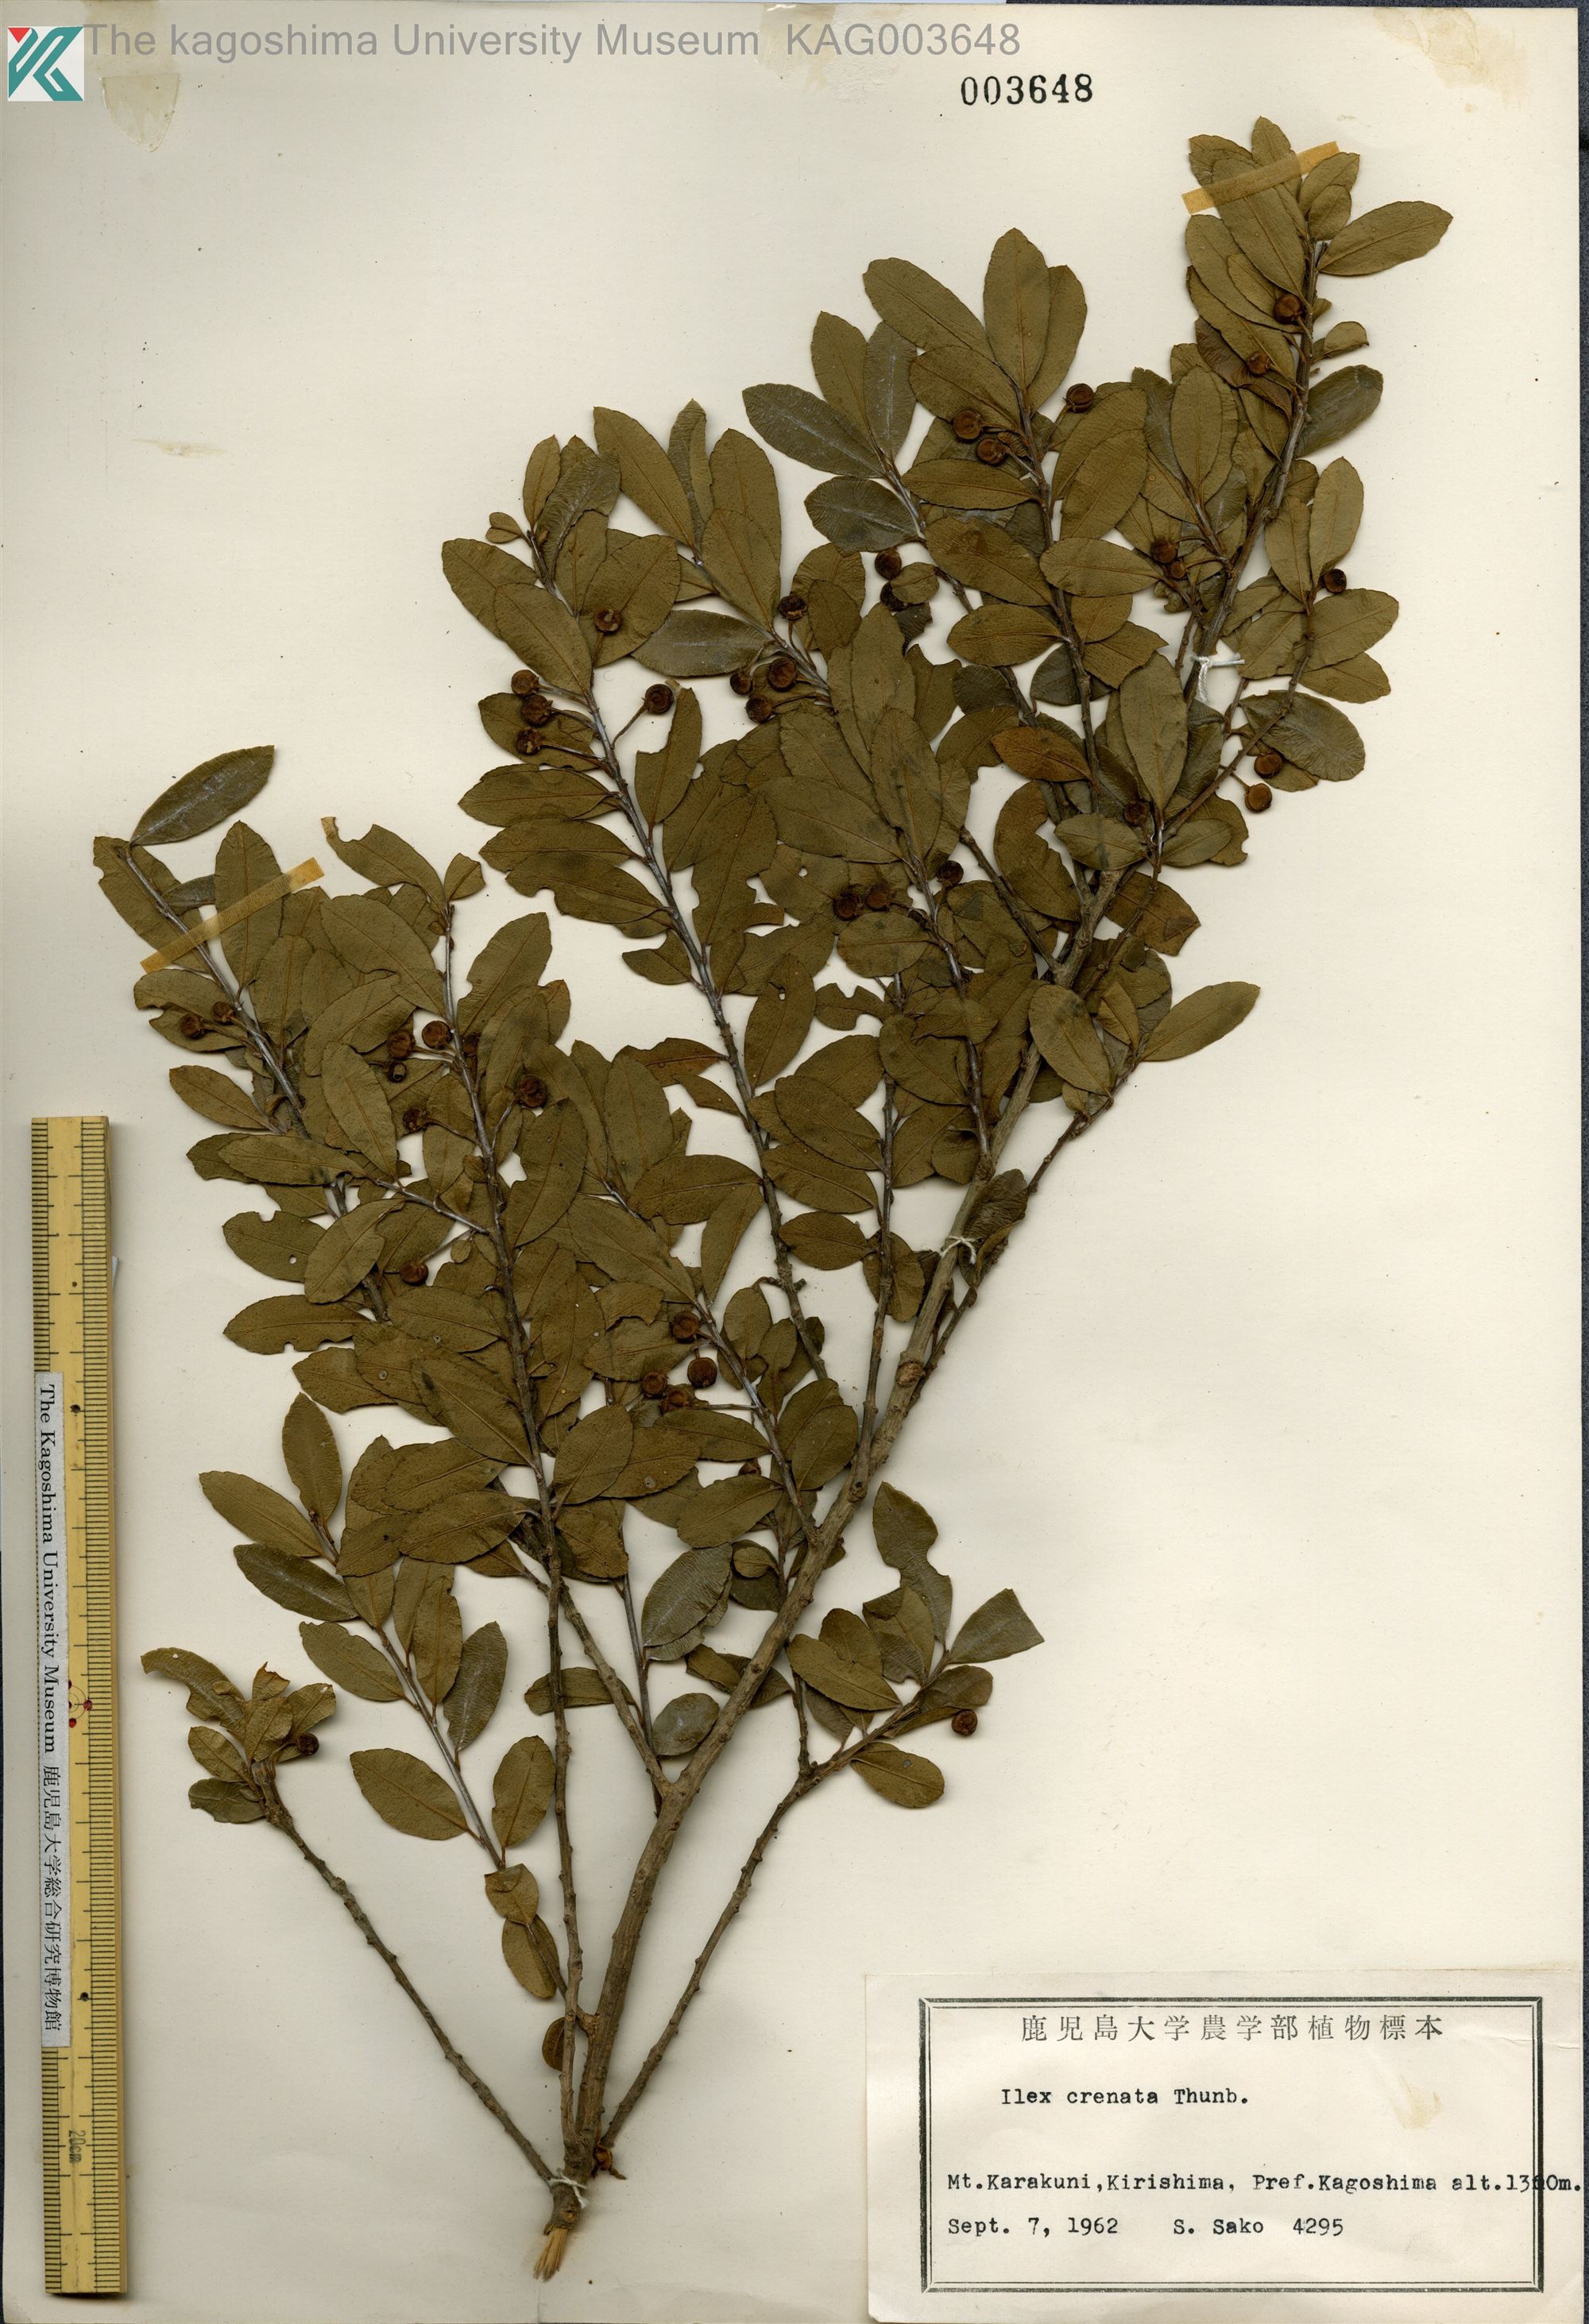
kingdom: Plantae
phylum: Tracheophyta
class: Magnoliopsida
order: Aquifoliales
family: Aquifoliaceae
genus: Ilex
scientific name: Ilex crenata
